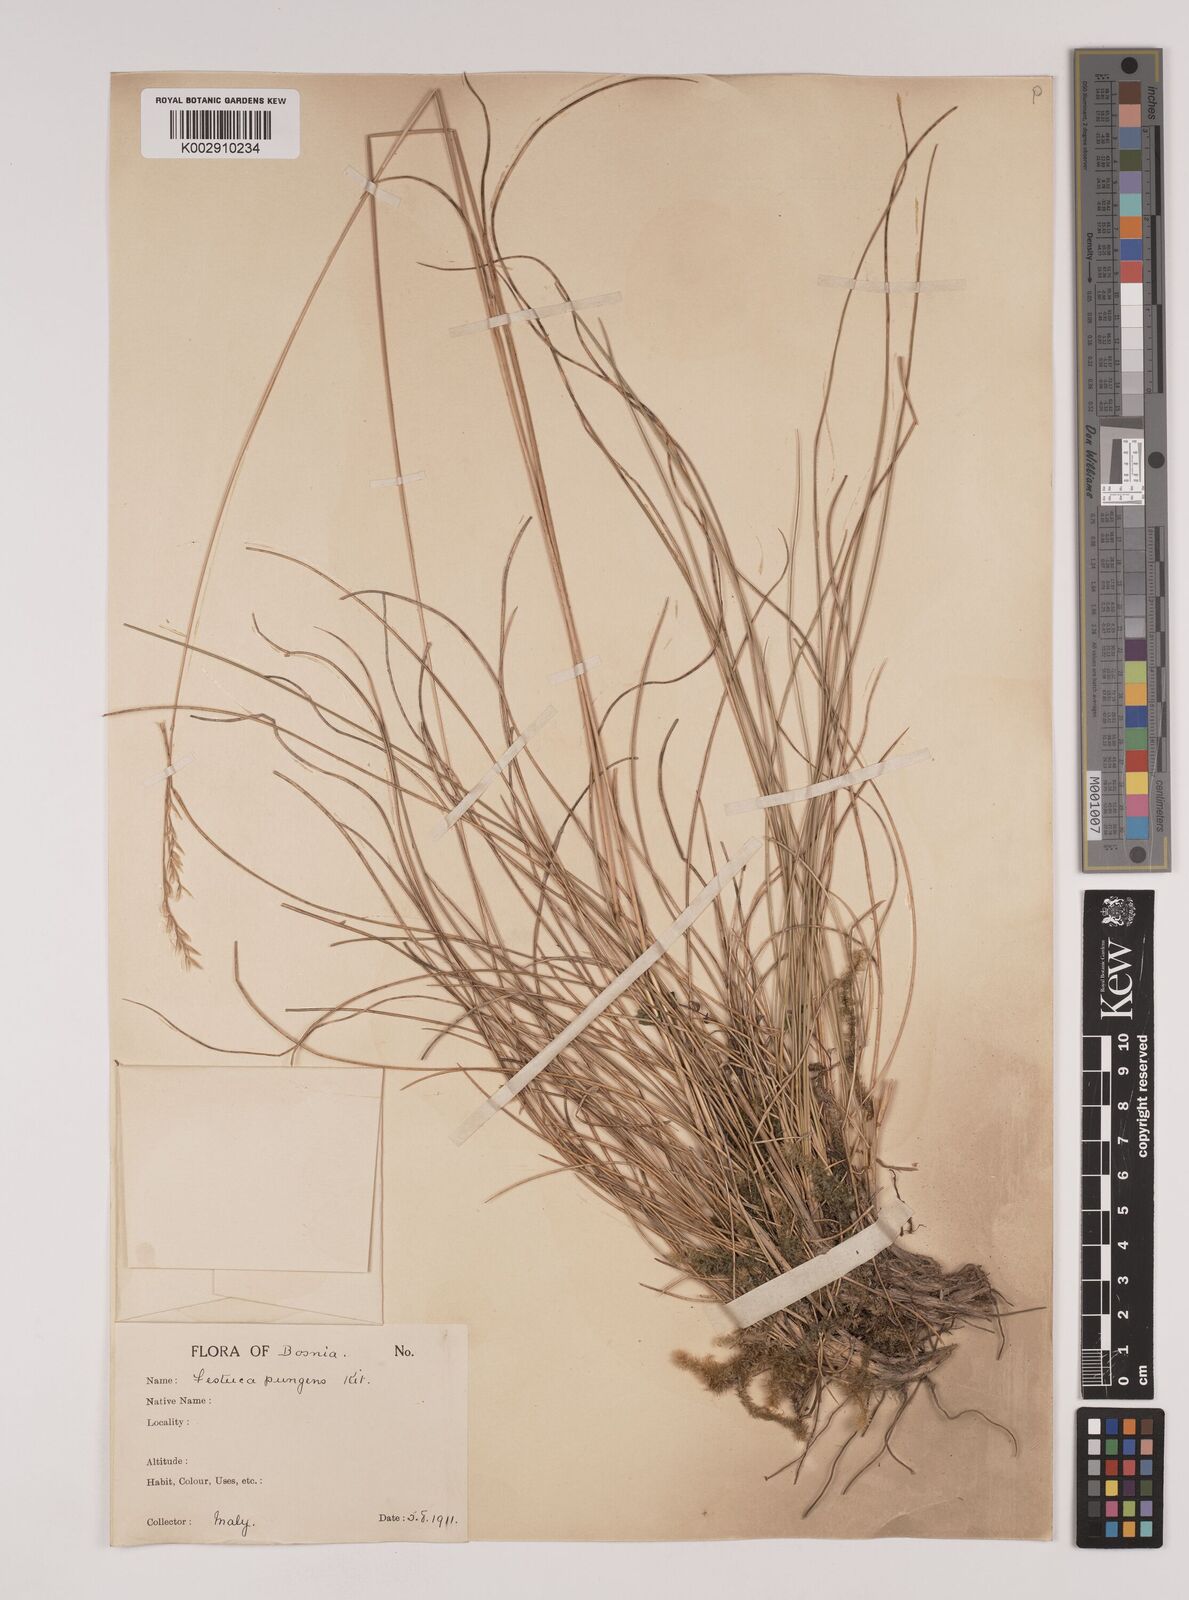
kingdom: Plantae
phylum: Tracheophyta
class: Liliopsida
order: Poales
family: Poaceae
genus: Festuca
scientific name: Festuca bosniaca
